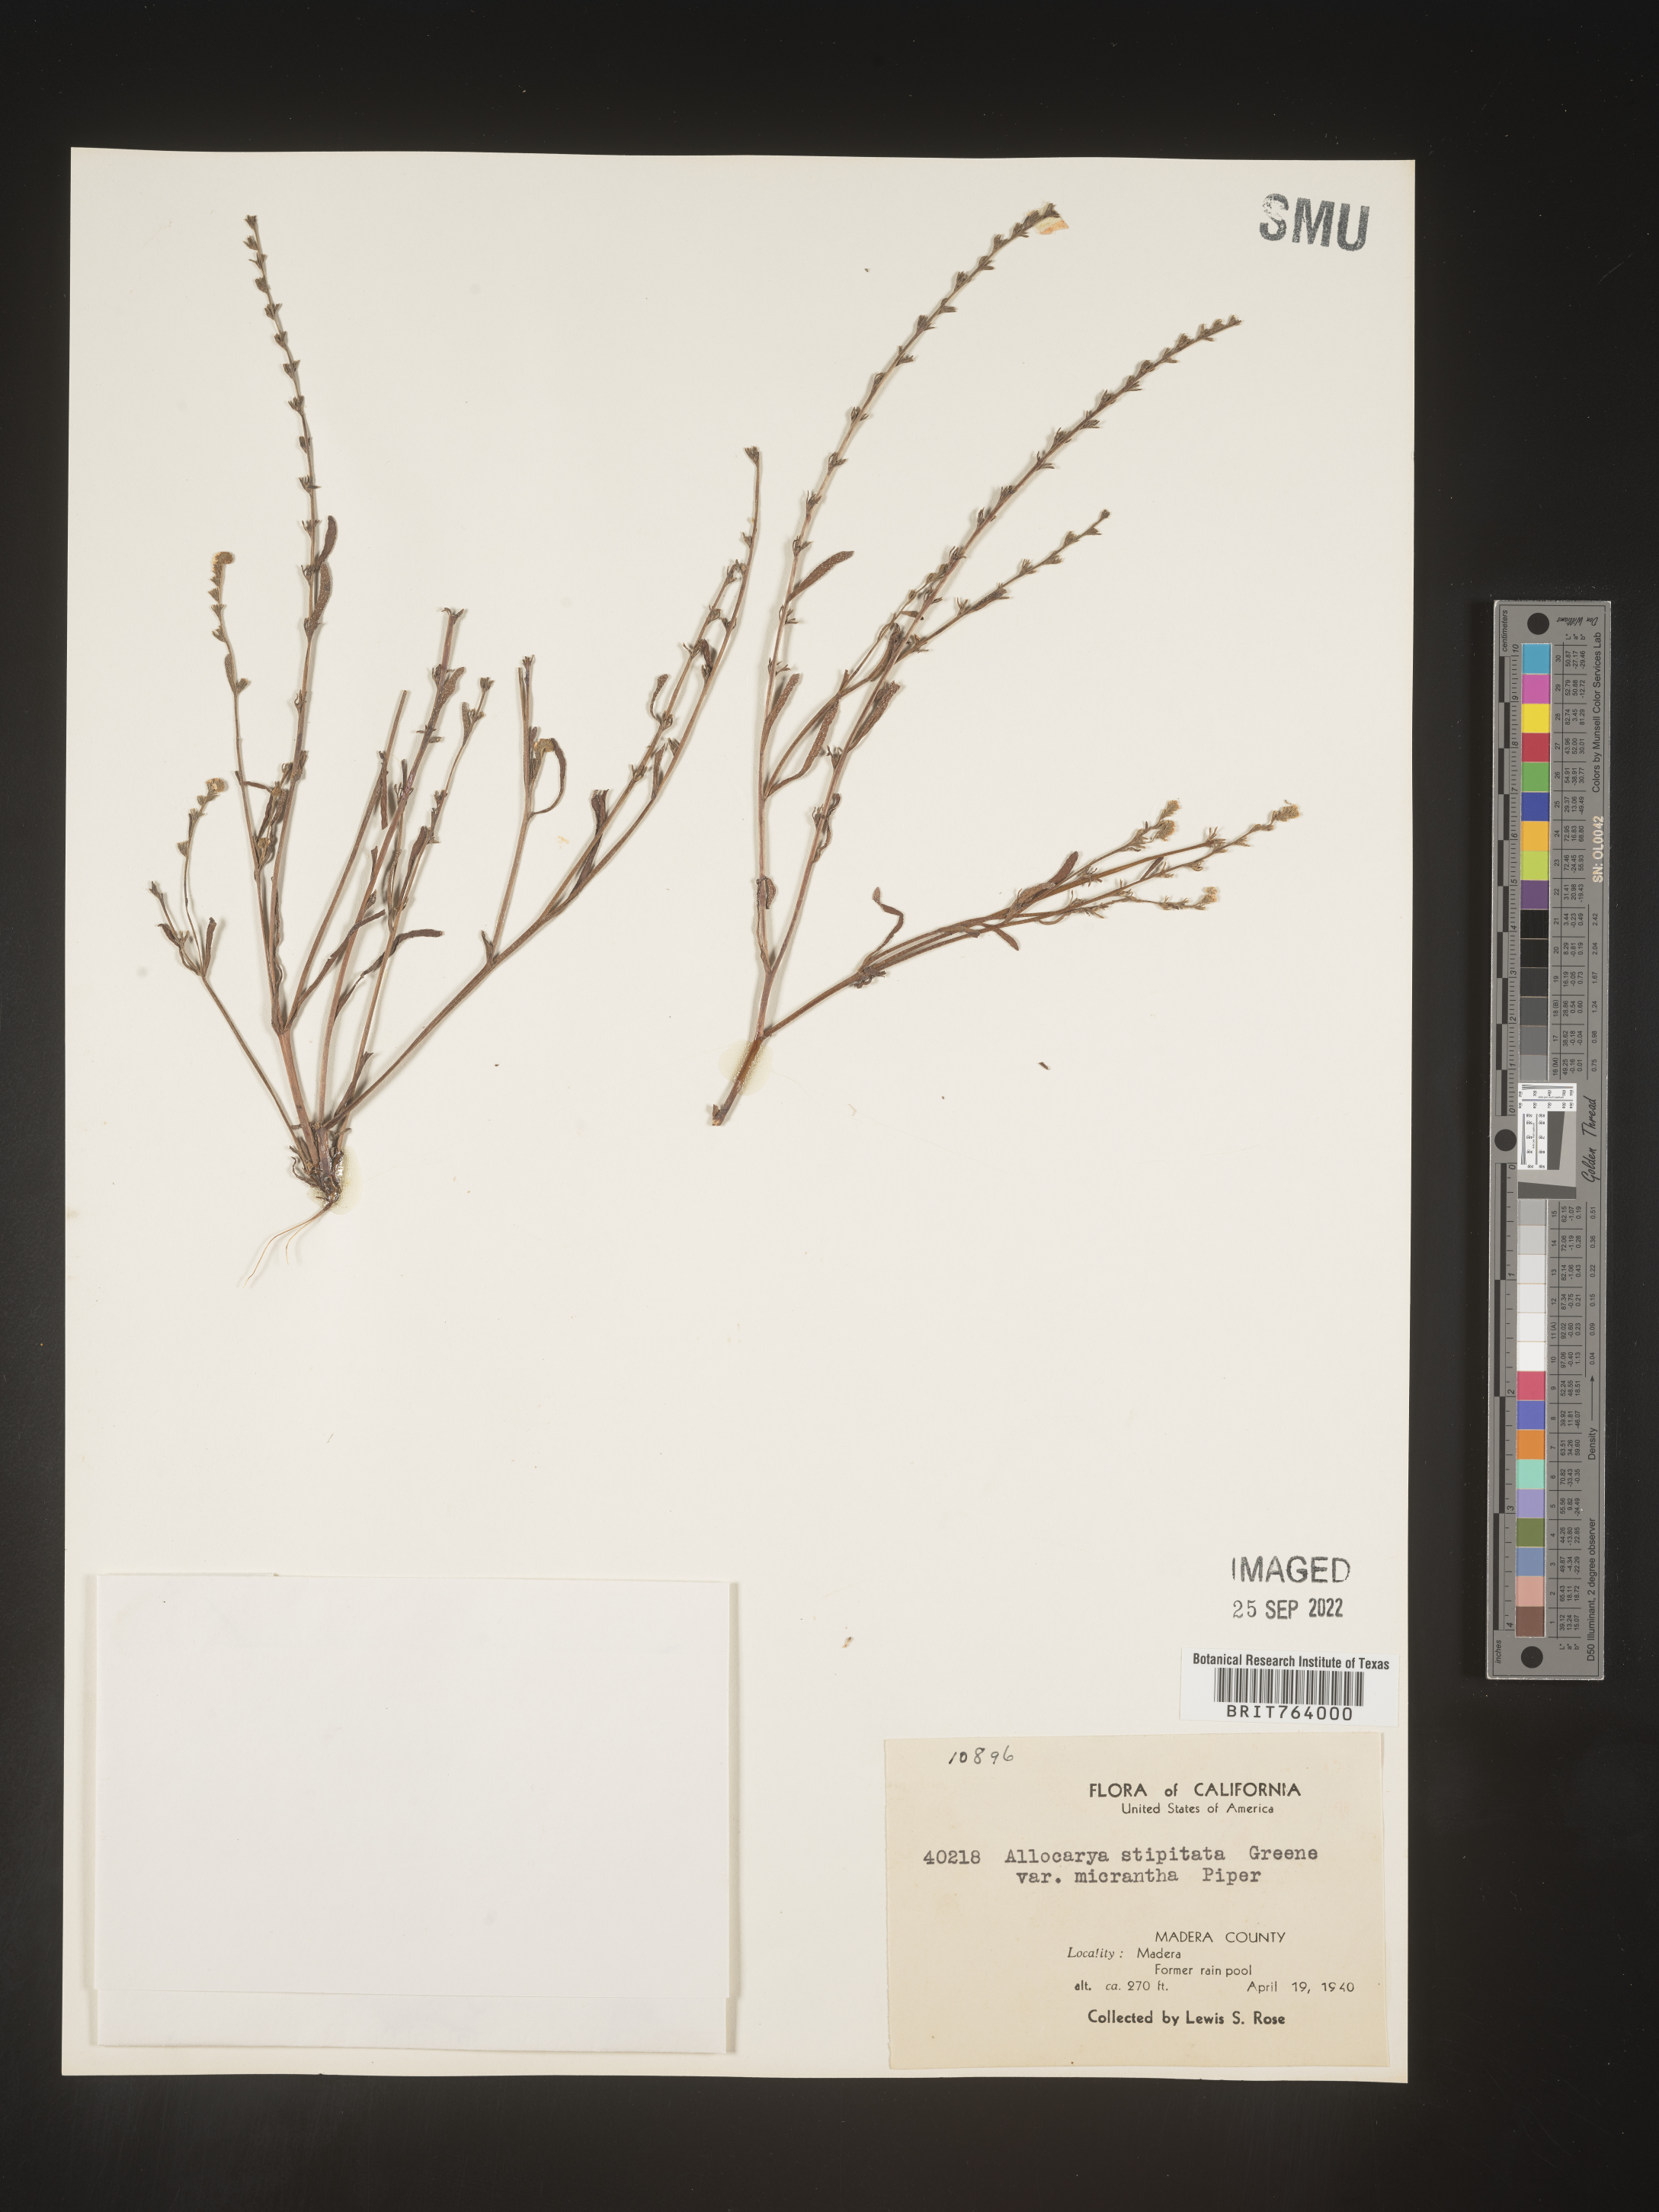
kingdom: Plantae
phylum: Tracheophyta
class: Magnoliopsida
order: Boraginales
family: Boraginaceae
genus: Plagiobothrys
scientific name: Plagiobothrys
